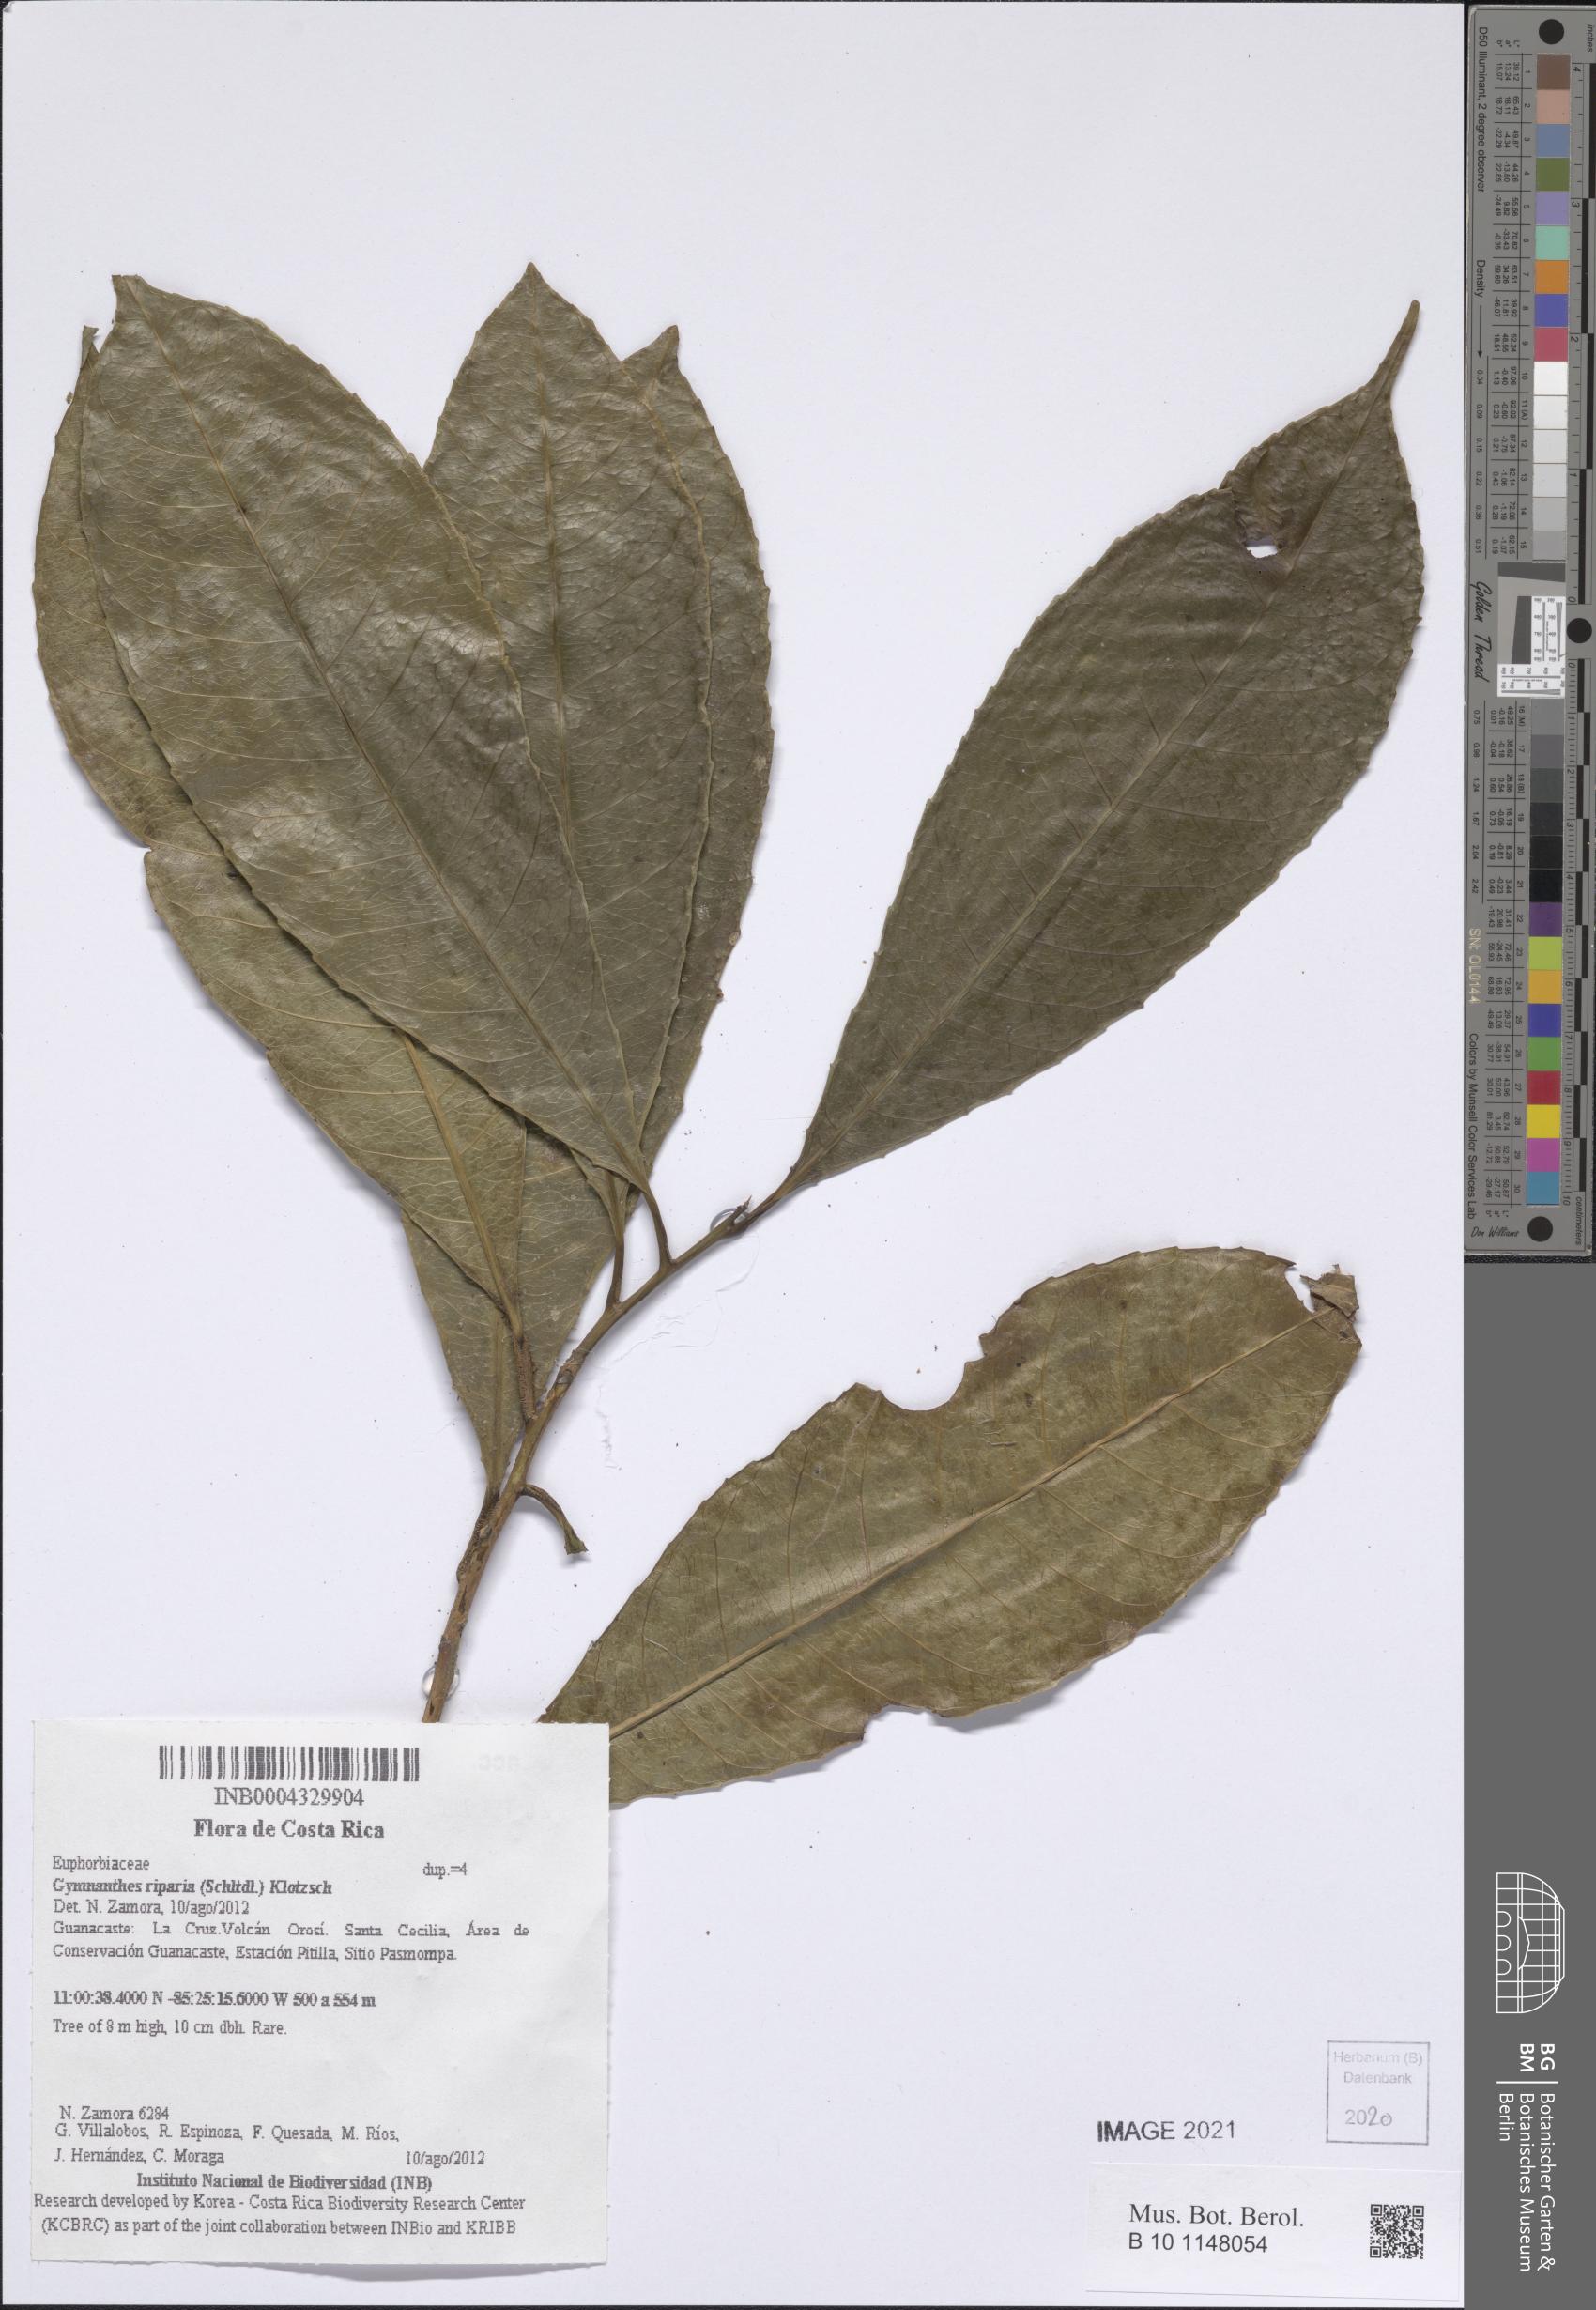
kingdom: Plantae
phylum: Tracheophyta
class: Magnoliopsida
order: Malpighiales
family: Euphorbiaceae
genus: Gymnanthes
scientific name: Gymnanthes riparia
